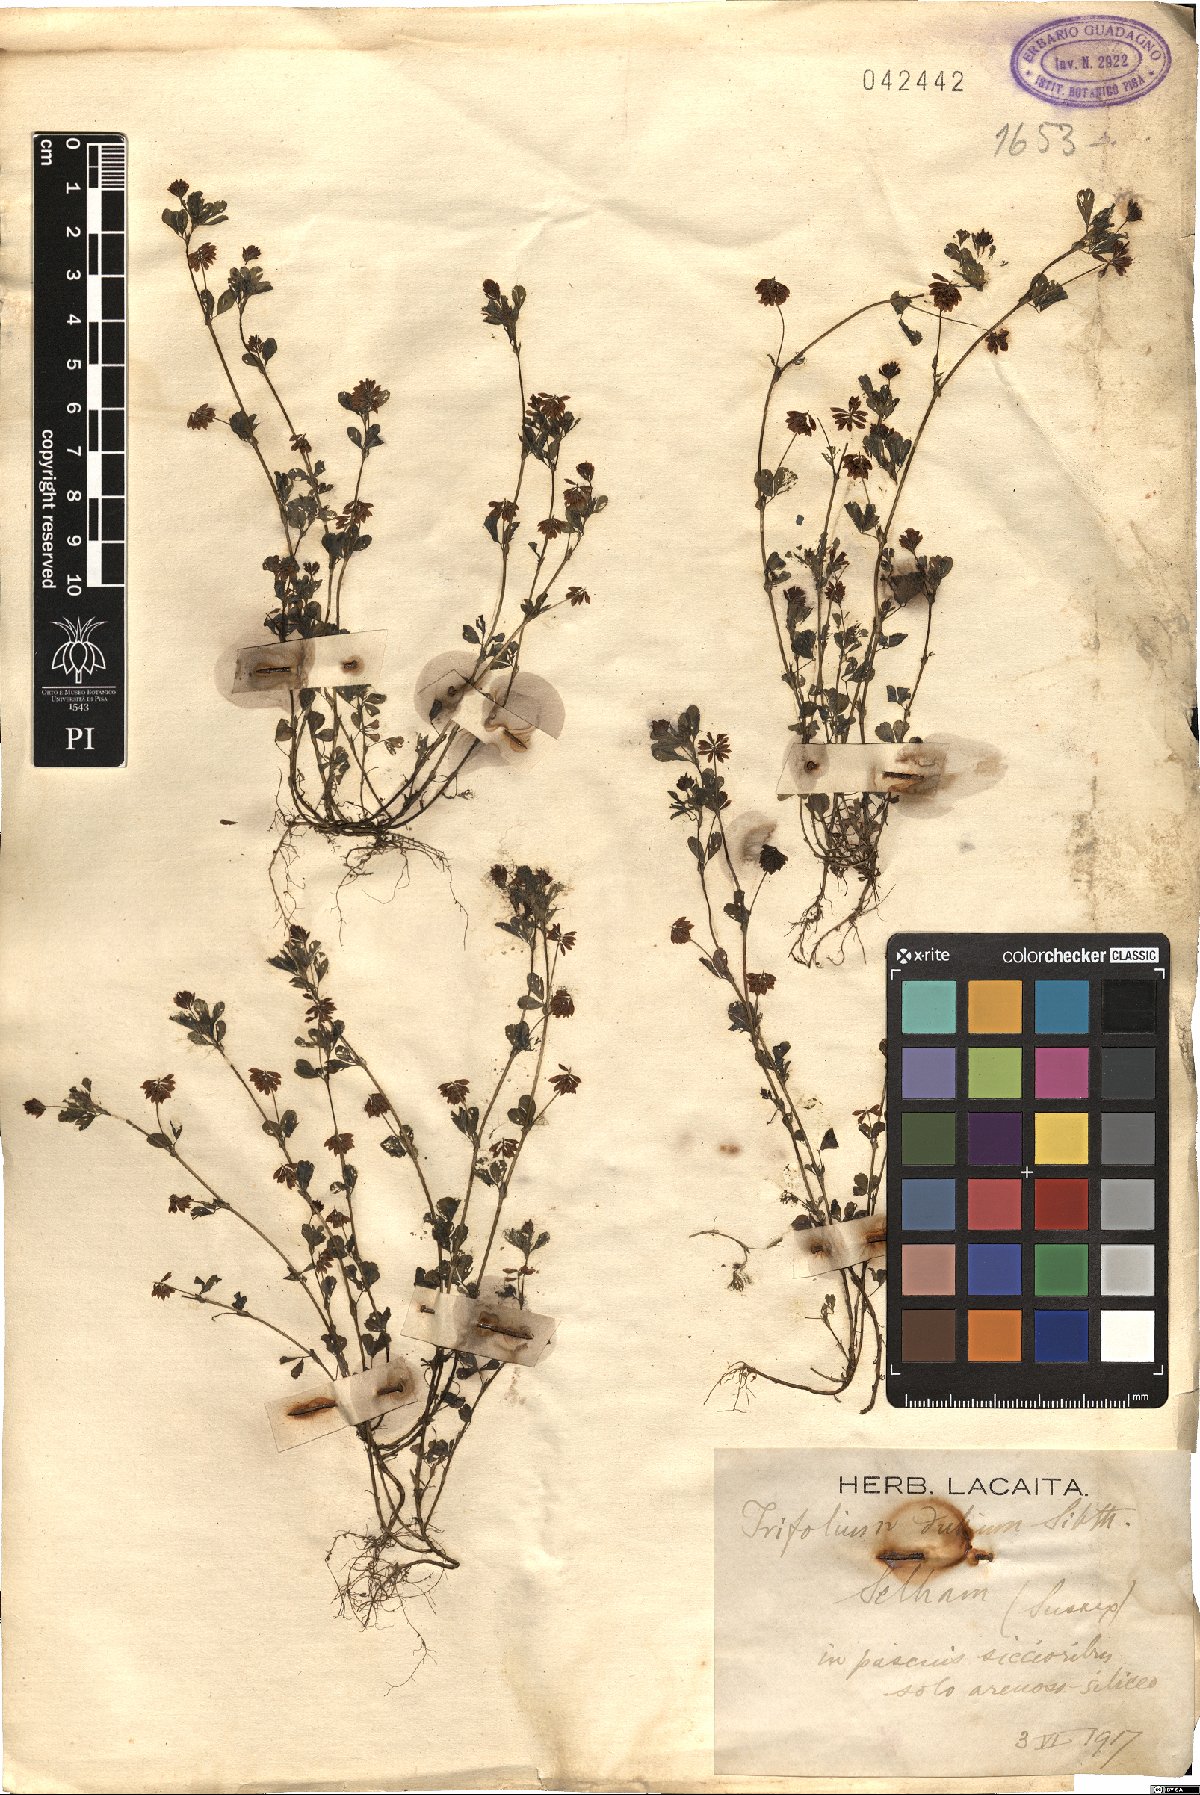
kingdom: Plantae
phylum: Tracheophyta
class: Magnoliopsida
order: Fabales
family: Fabaceae
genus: Trifolium
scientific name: Trifolium dubium
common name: Suckling clover
